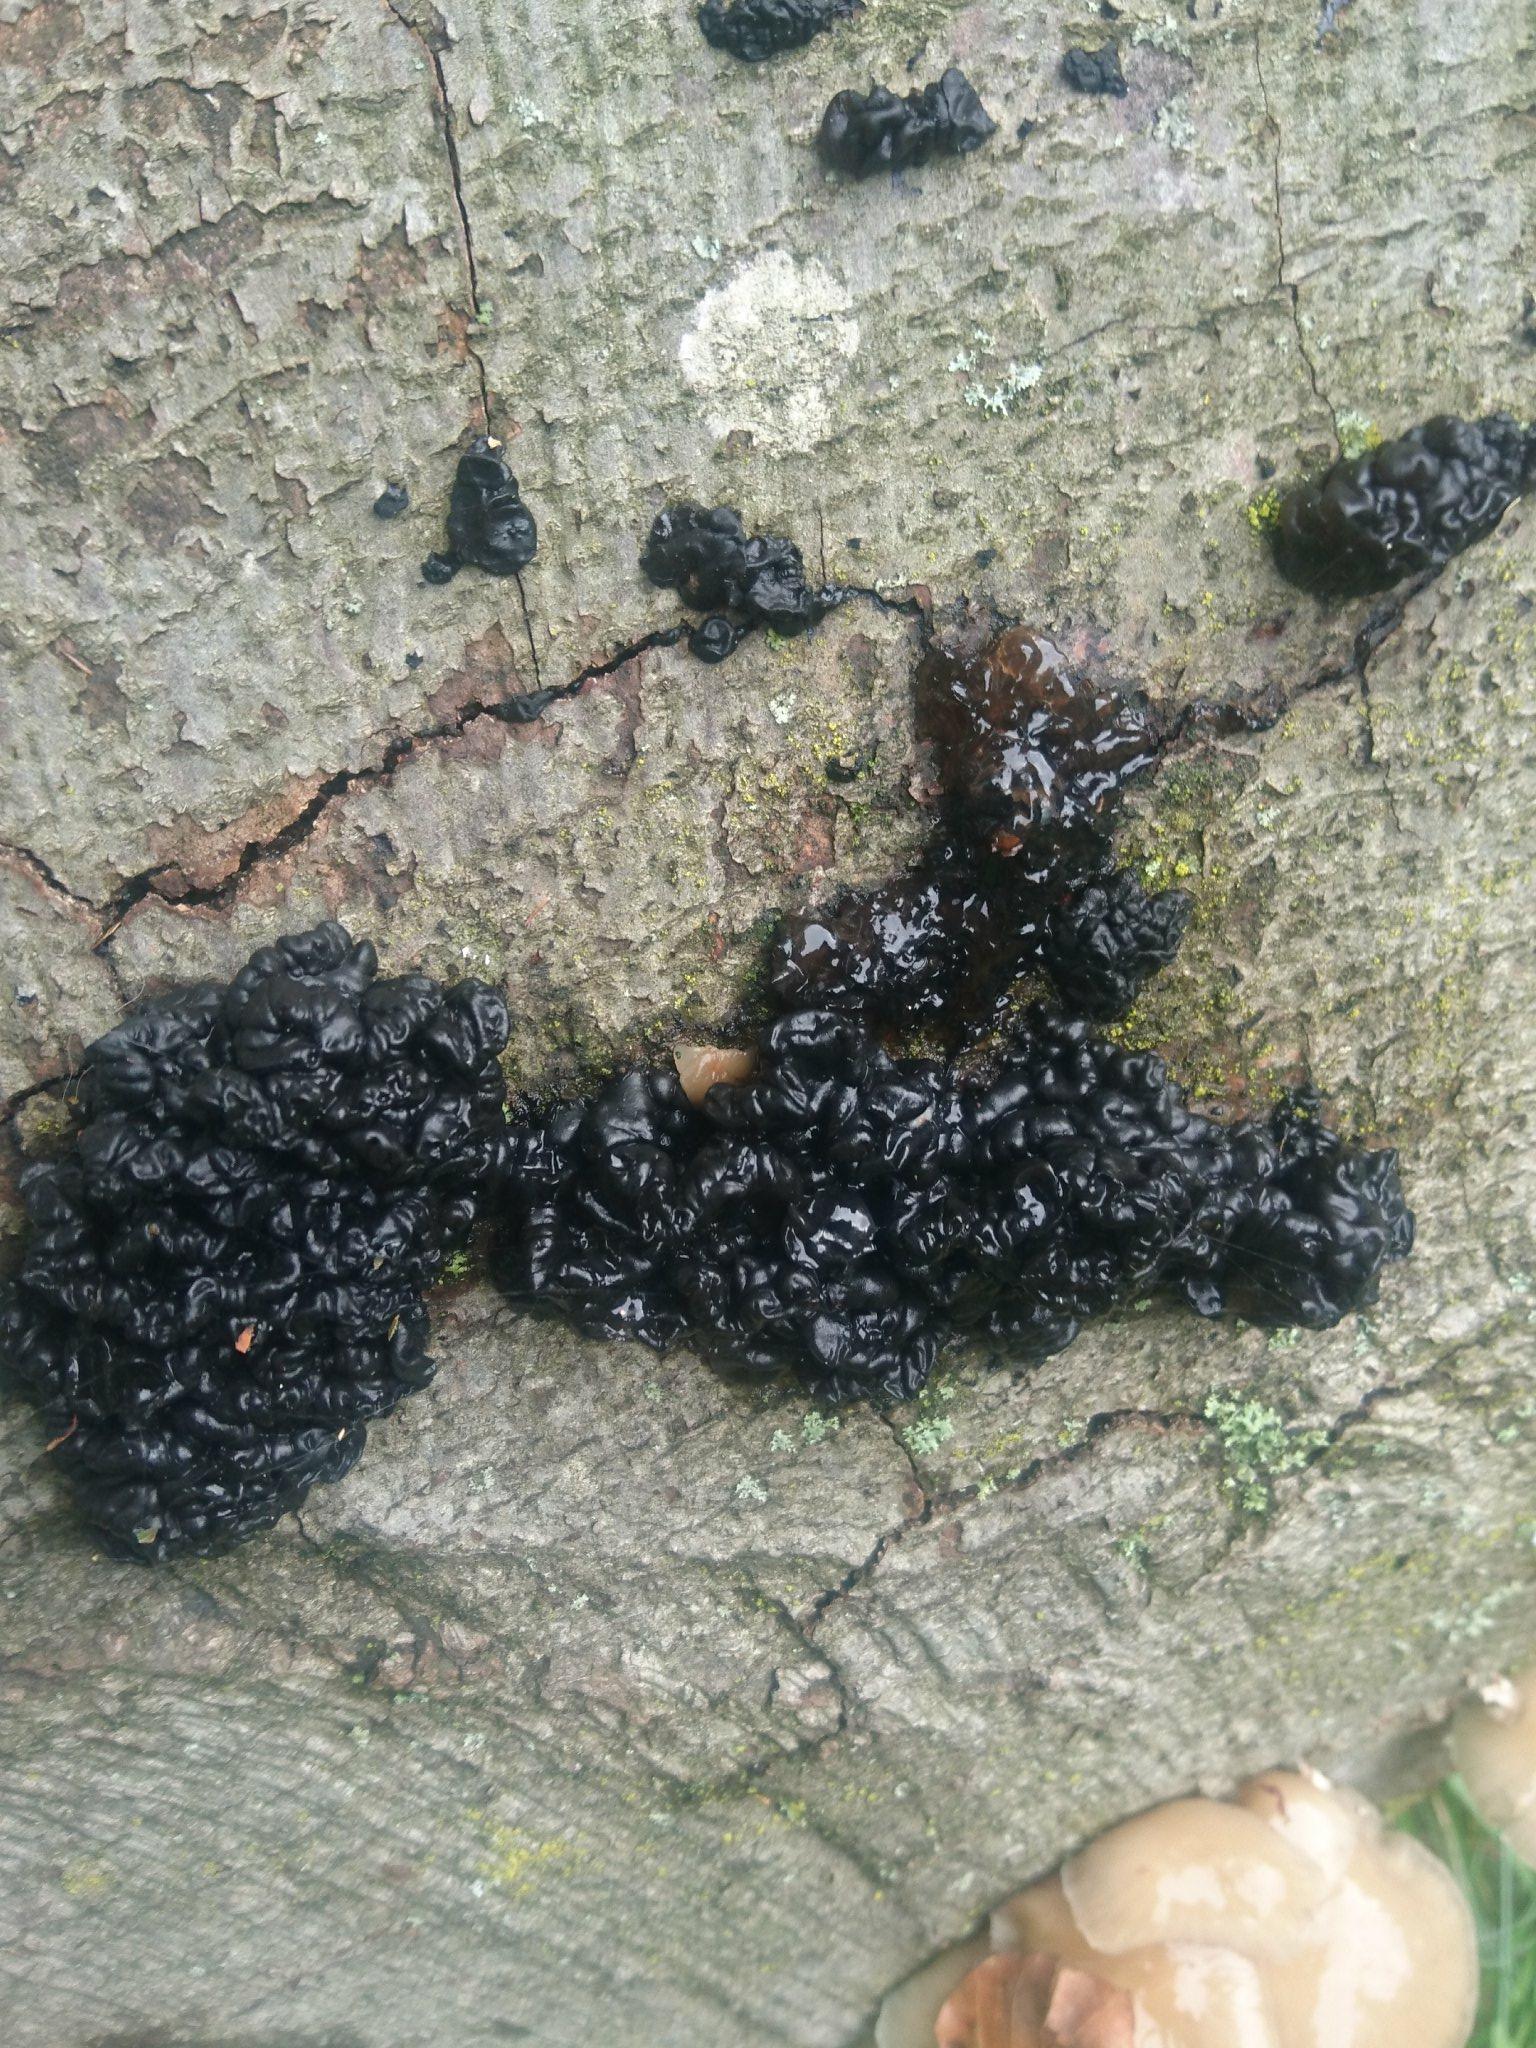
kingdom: Fungi
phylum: Basidiomycota
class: Agaricomycetes
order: Auriculariales
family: Auriculariaceae
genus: Exidia
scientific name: Exidia nigricans
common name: almindelig bævretop
